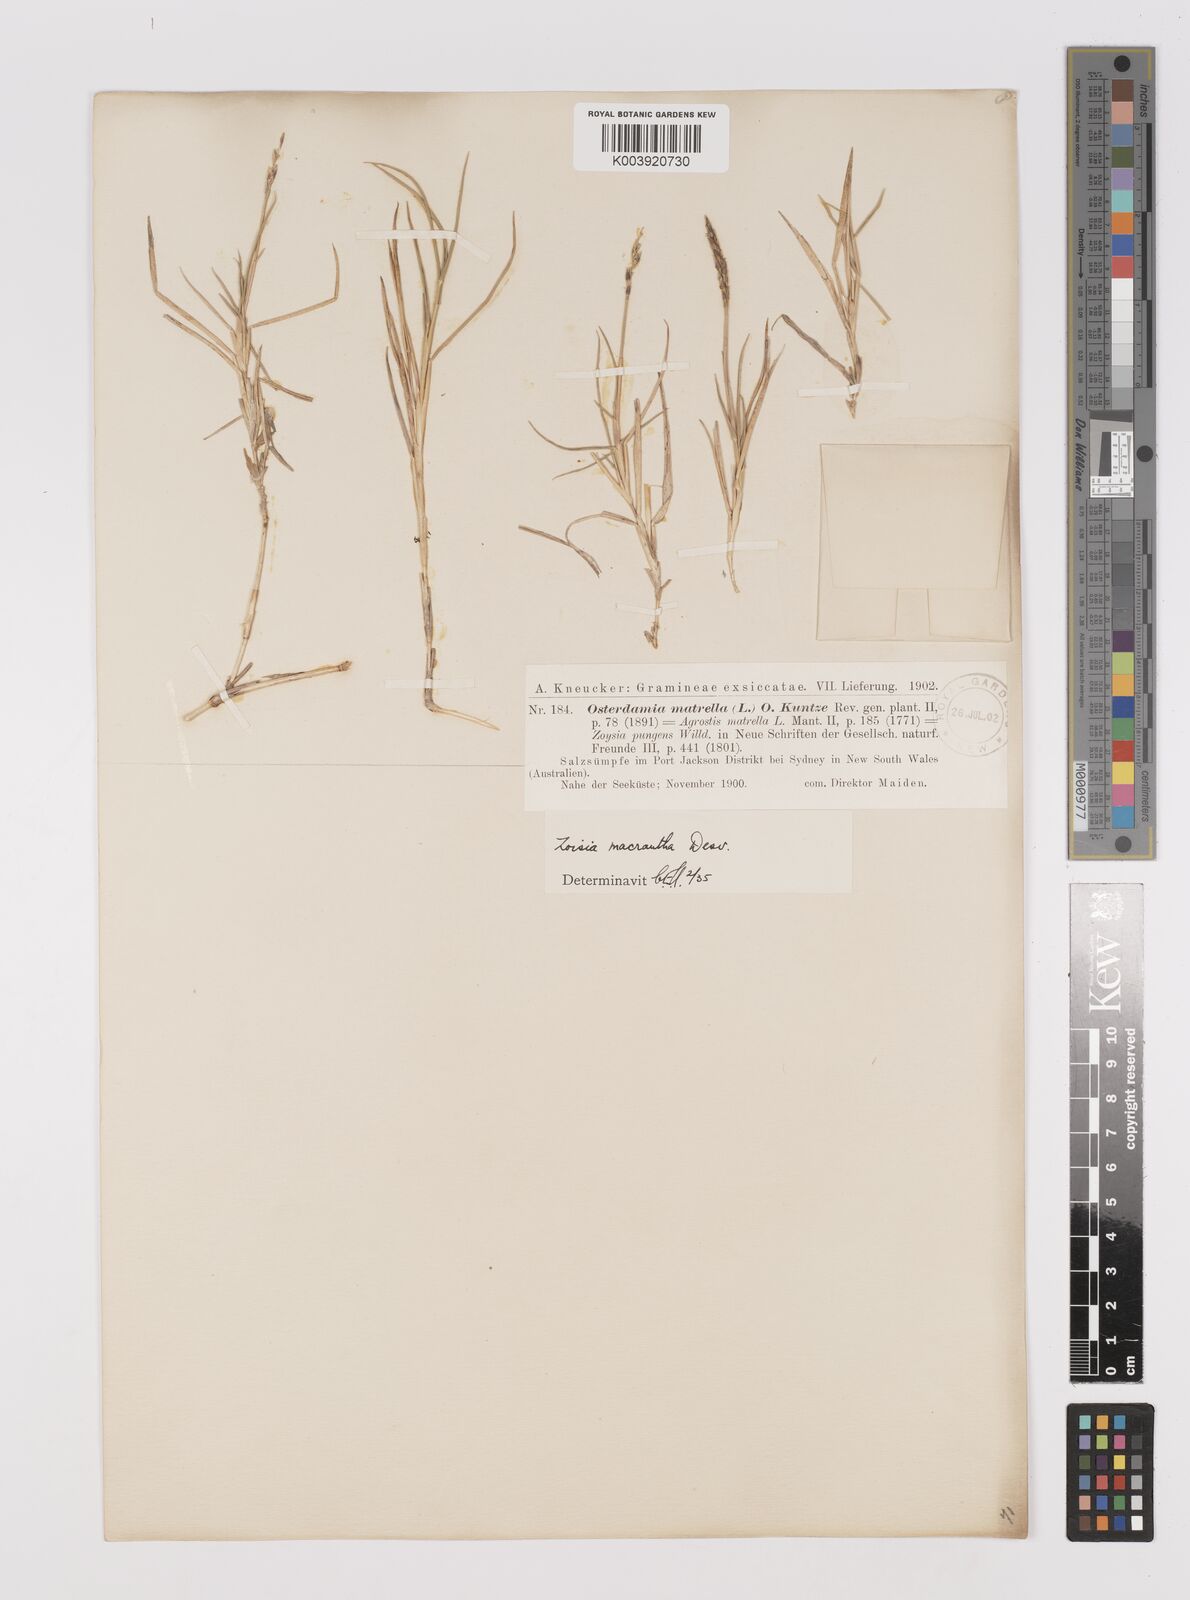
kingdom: Plantae
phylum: Tracheophyta
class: Liliopsida
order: Poales
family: Poaceae
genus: Zoysia
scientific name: Zoysia macrantha
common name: Korean lawn grass
